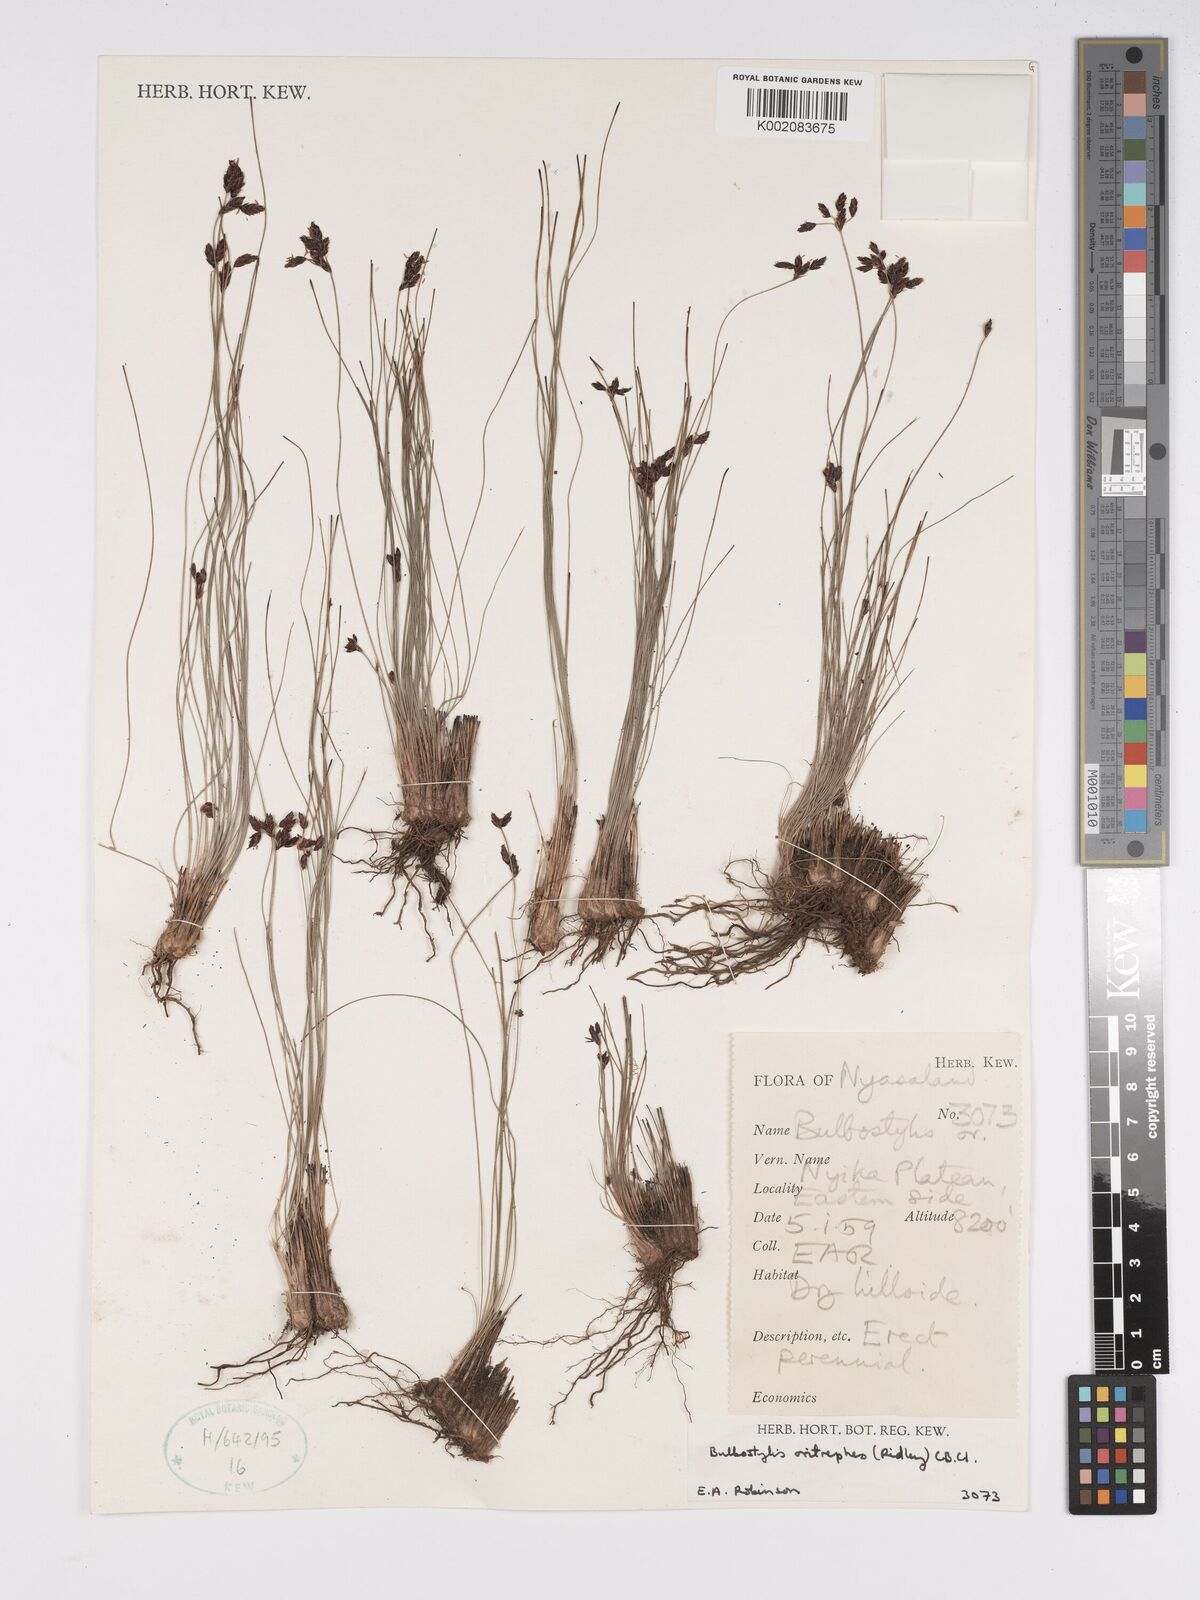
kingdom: Plantae
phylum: Tracheophyta
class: Liliopsida
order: Poales
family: Cyperaceae
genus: Bulbostylis
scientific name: Bulbostylis oritrephes
